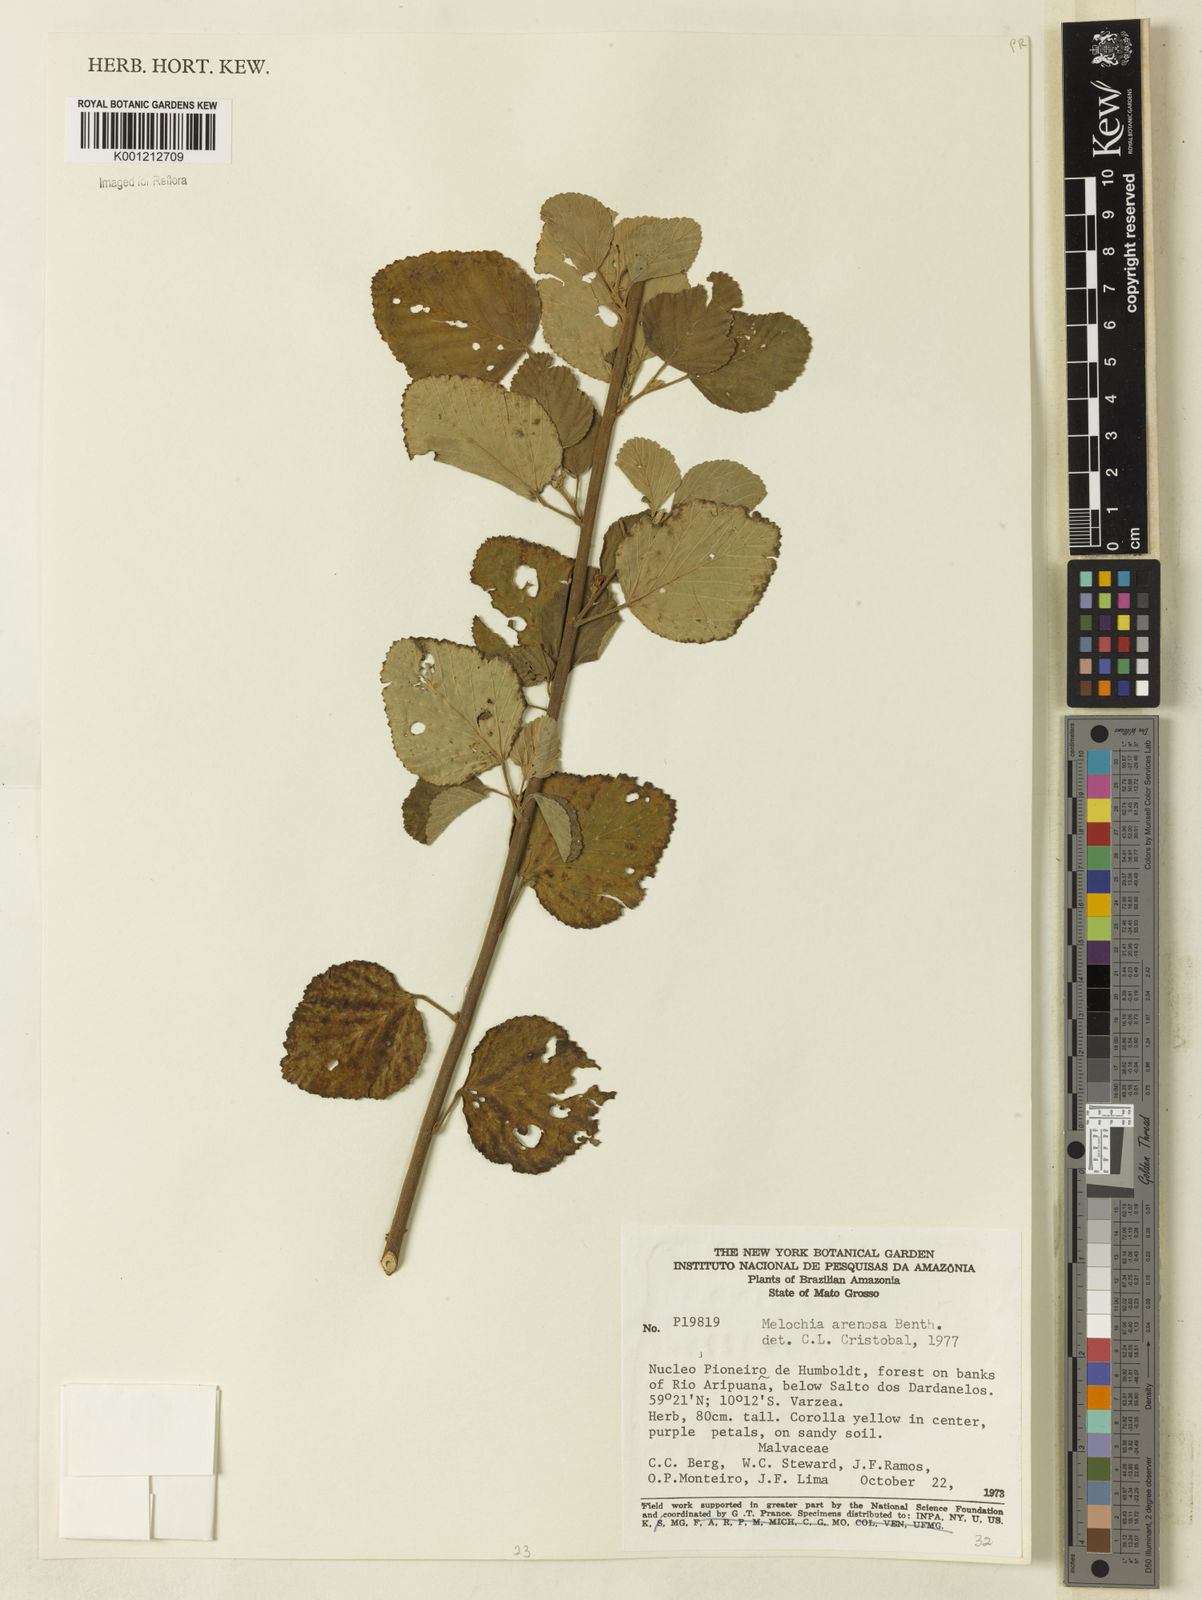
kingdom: Plantae
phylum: Tracheophyta
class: Magnoliopsida
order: Malvales
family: Malvaceae
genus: Melochia
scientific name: Melochia arenosa
